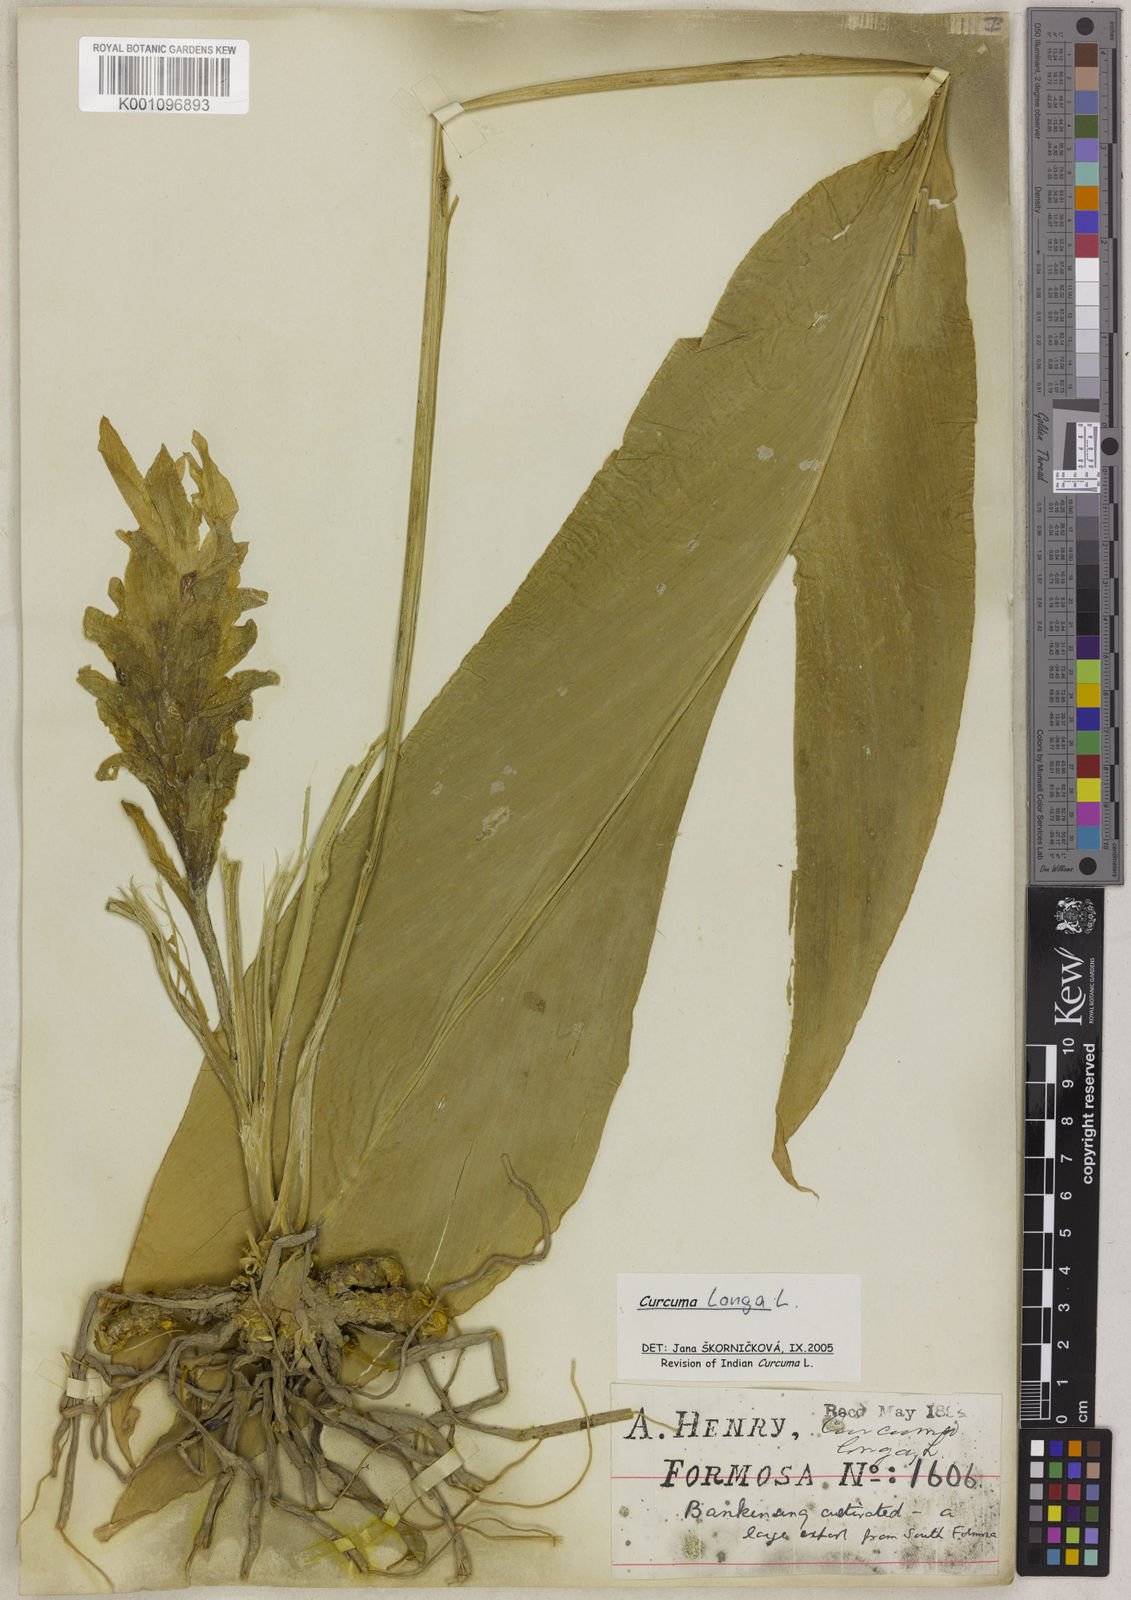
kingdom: Plantae
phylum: Tracheophyta
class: Liliopsida
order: Zingiberales
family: Zingiberaceae
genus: Curcuma
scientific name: Curcuma longa
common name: Turmeric
